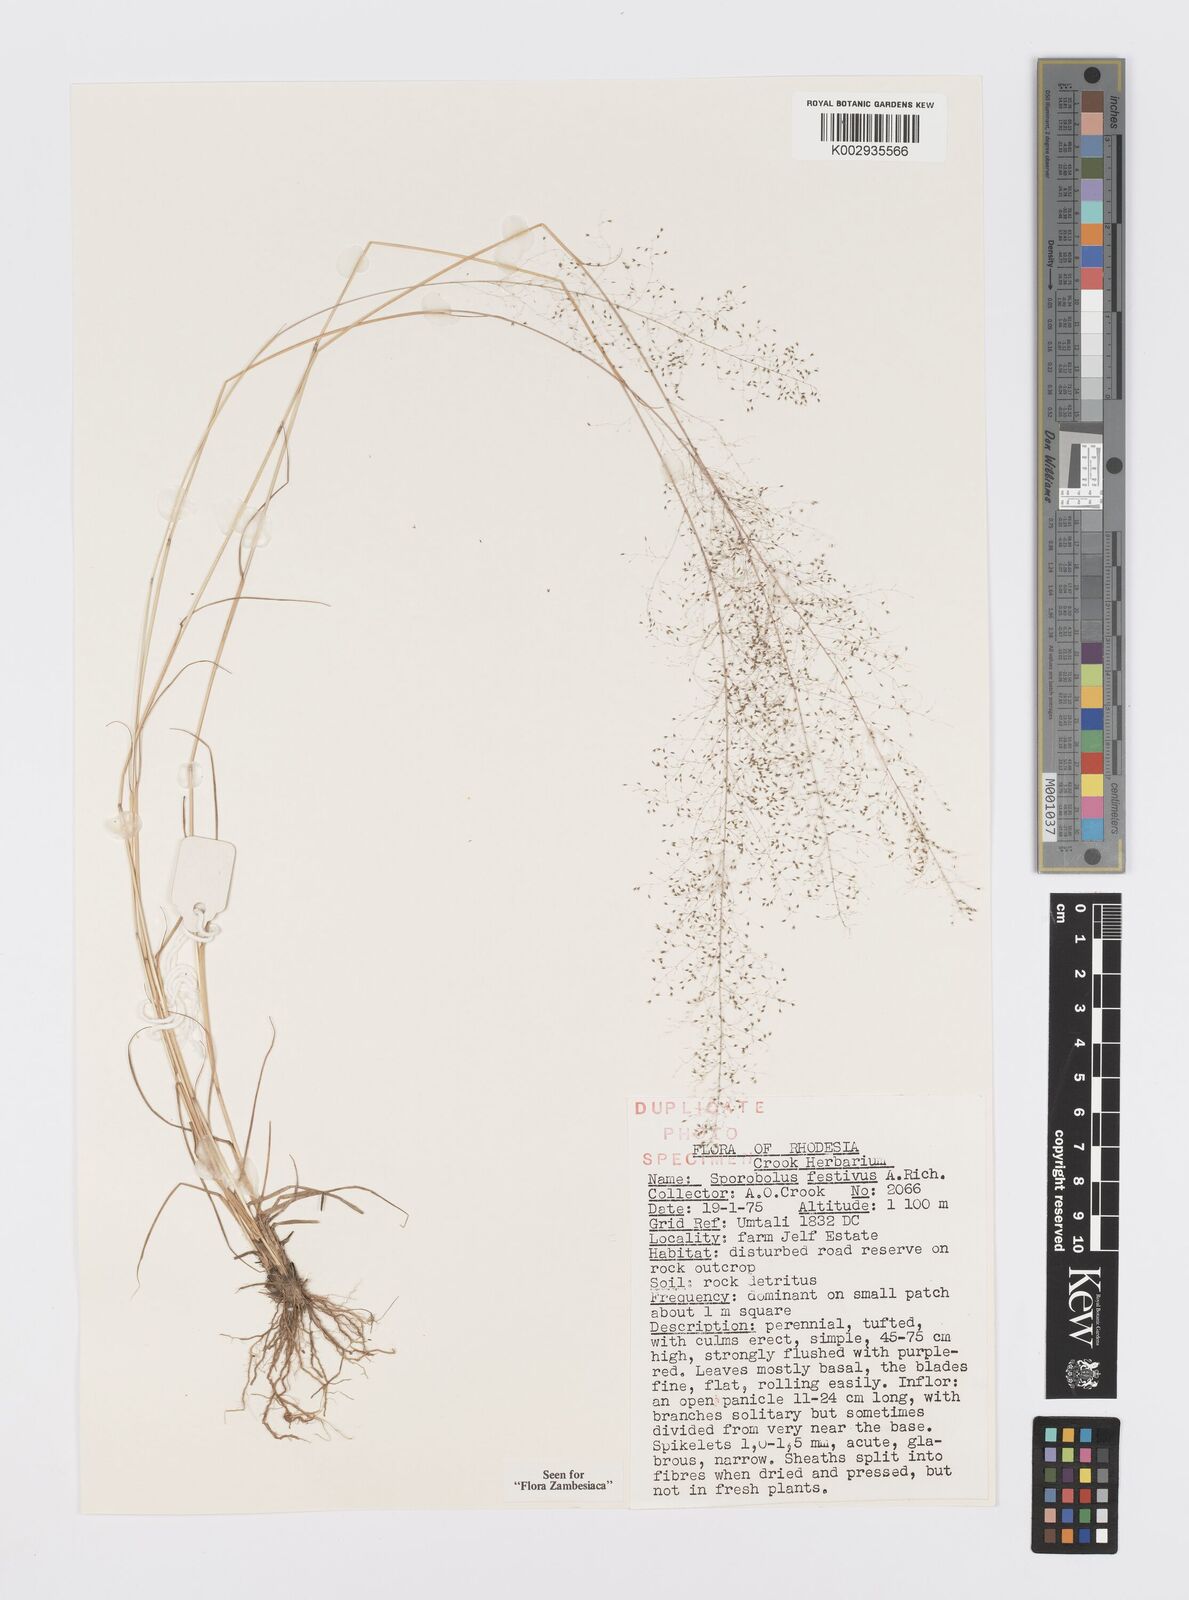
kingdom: Plantae
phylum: Tracheophyta
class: Liliopsida
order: Poales
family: Poaceae
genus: Sporobolus
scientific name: Sporobolus festivus
